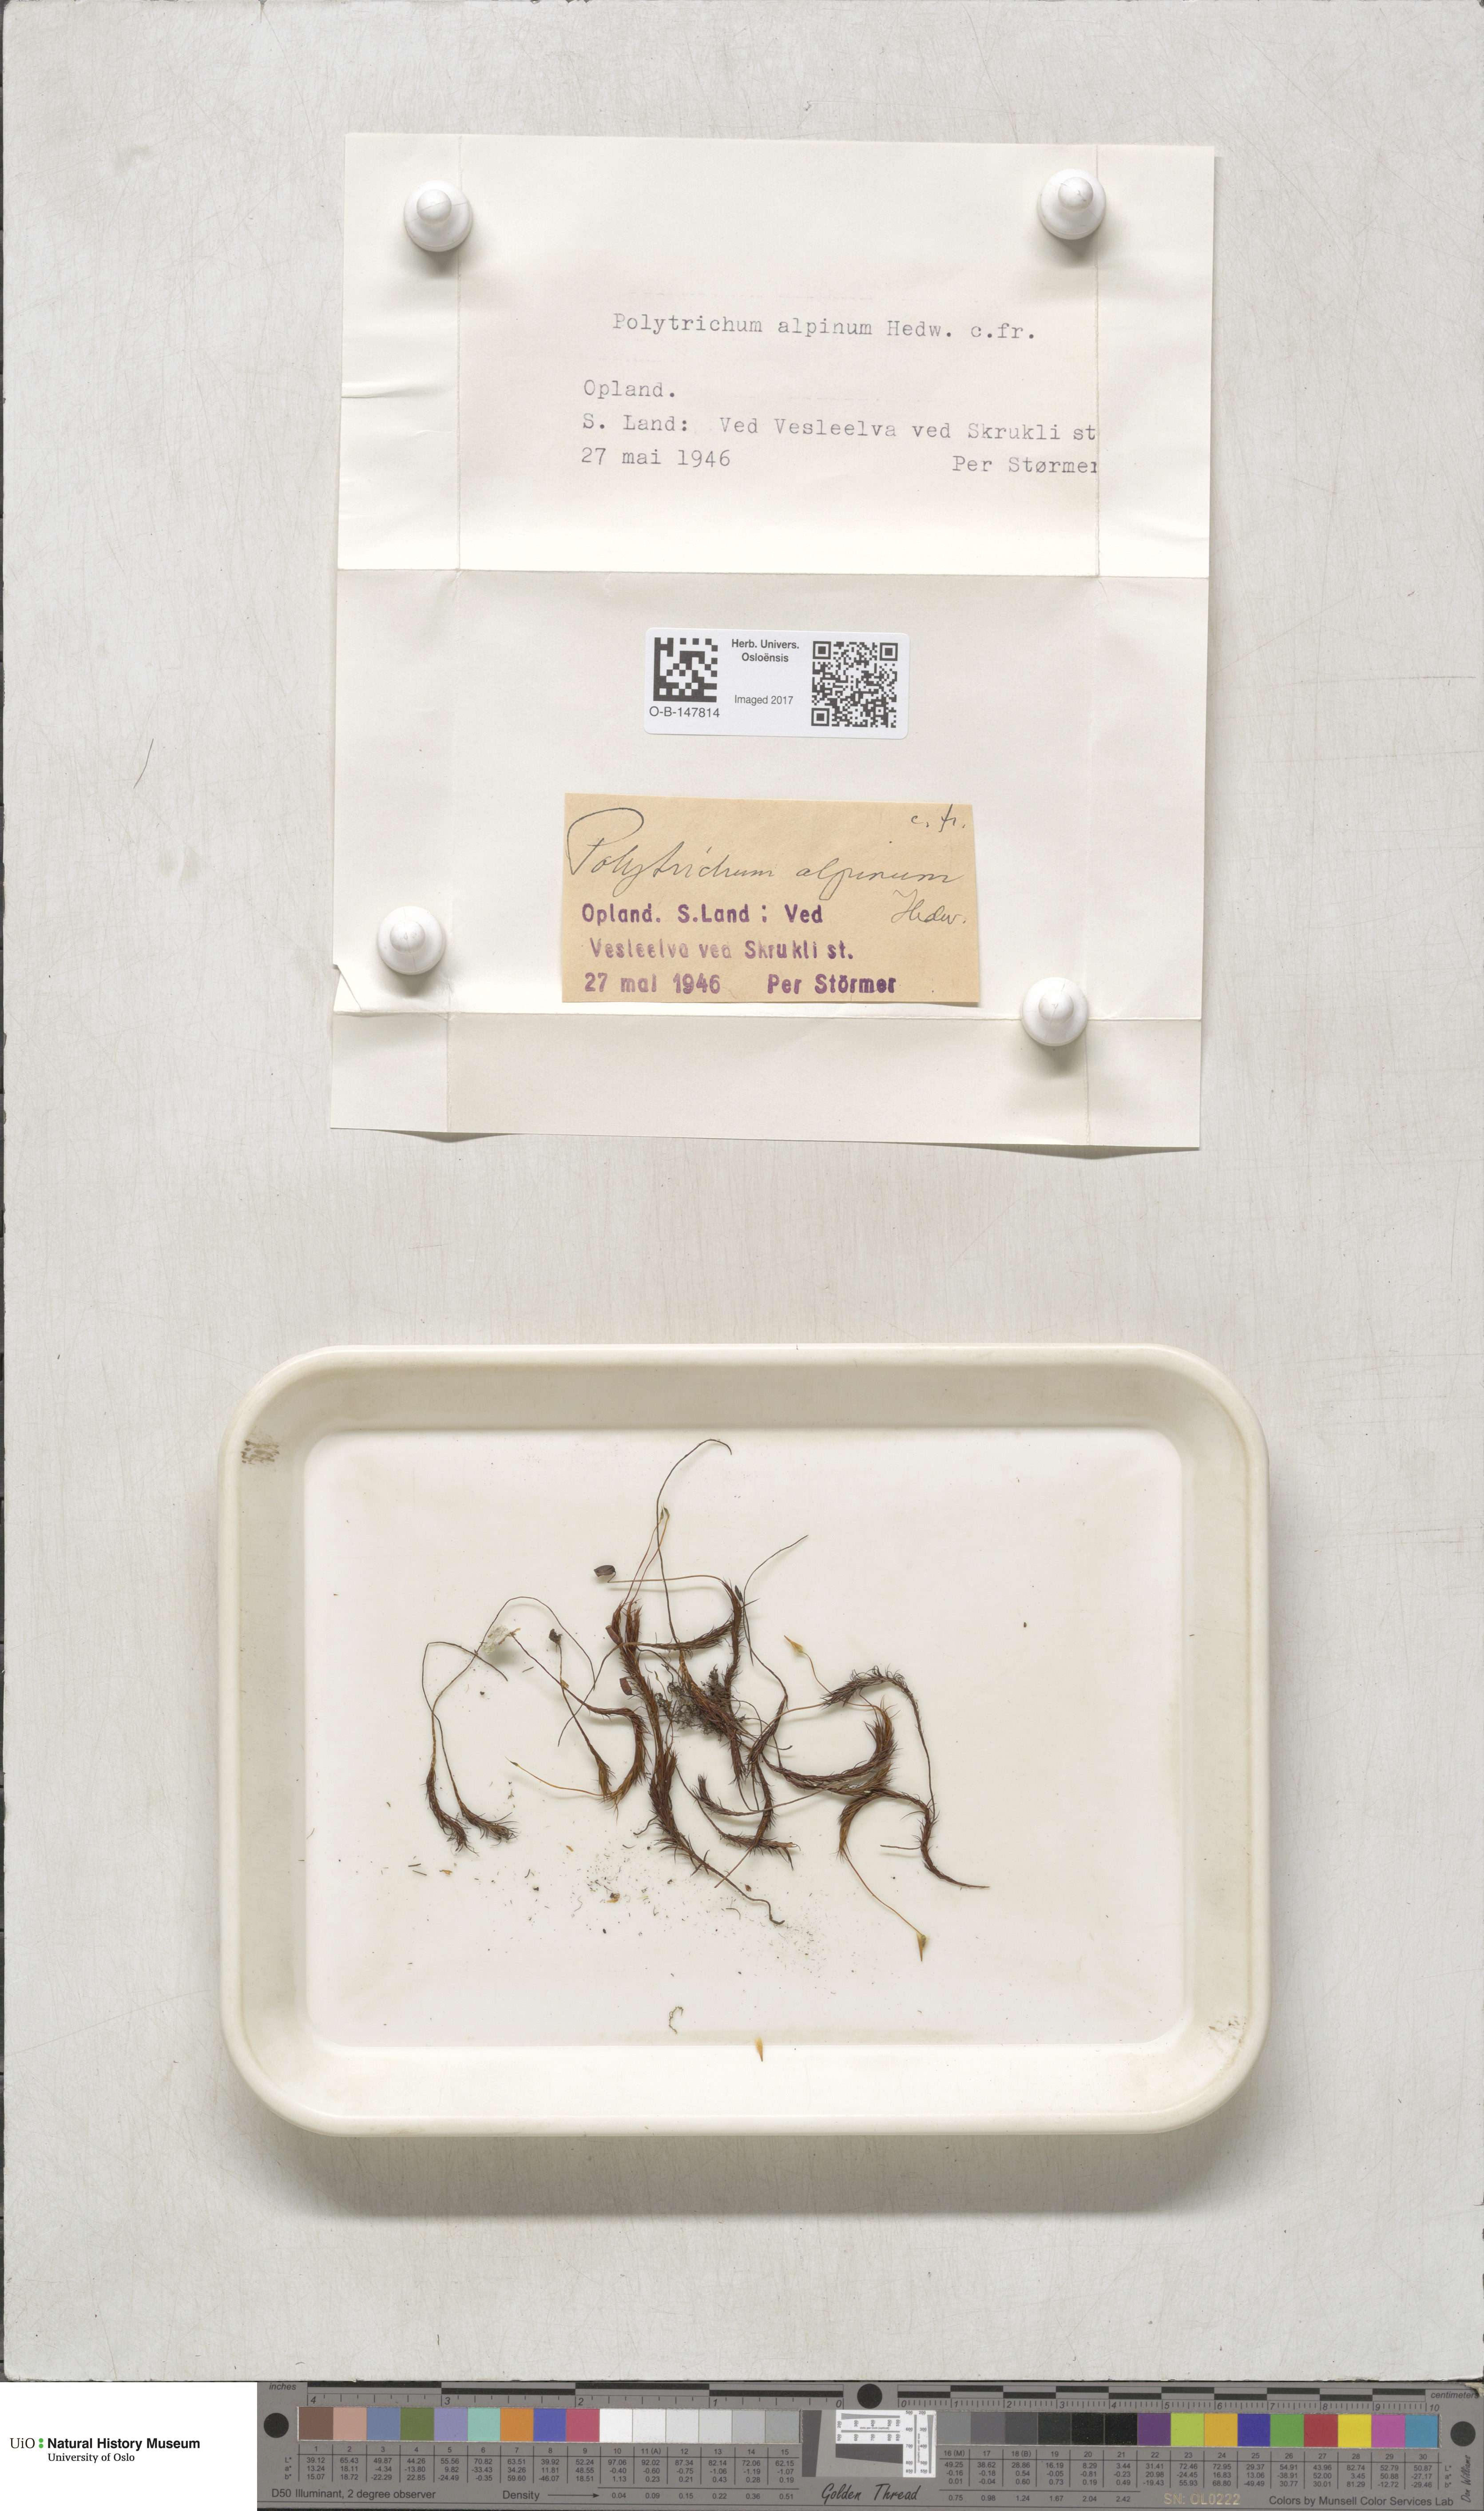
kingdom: Plantae
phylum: Bryophyta
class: Polytrichopsida
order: Polytrichales
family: Polytrichaceae
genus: Polytrichastrum
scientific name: Polytrichastrum alpinum
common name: Alpine haircap
